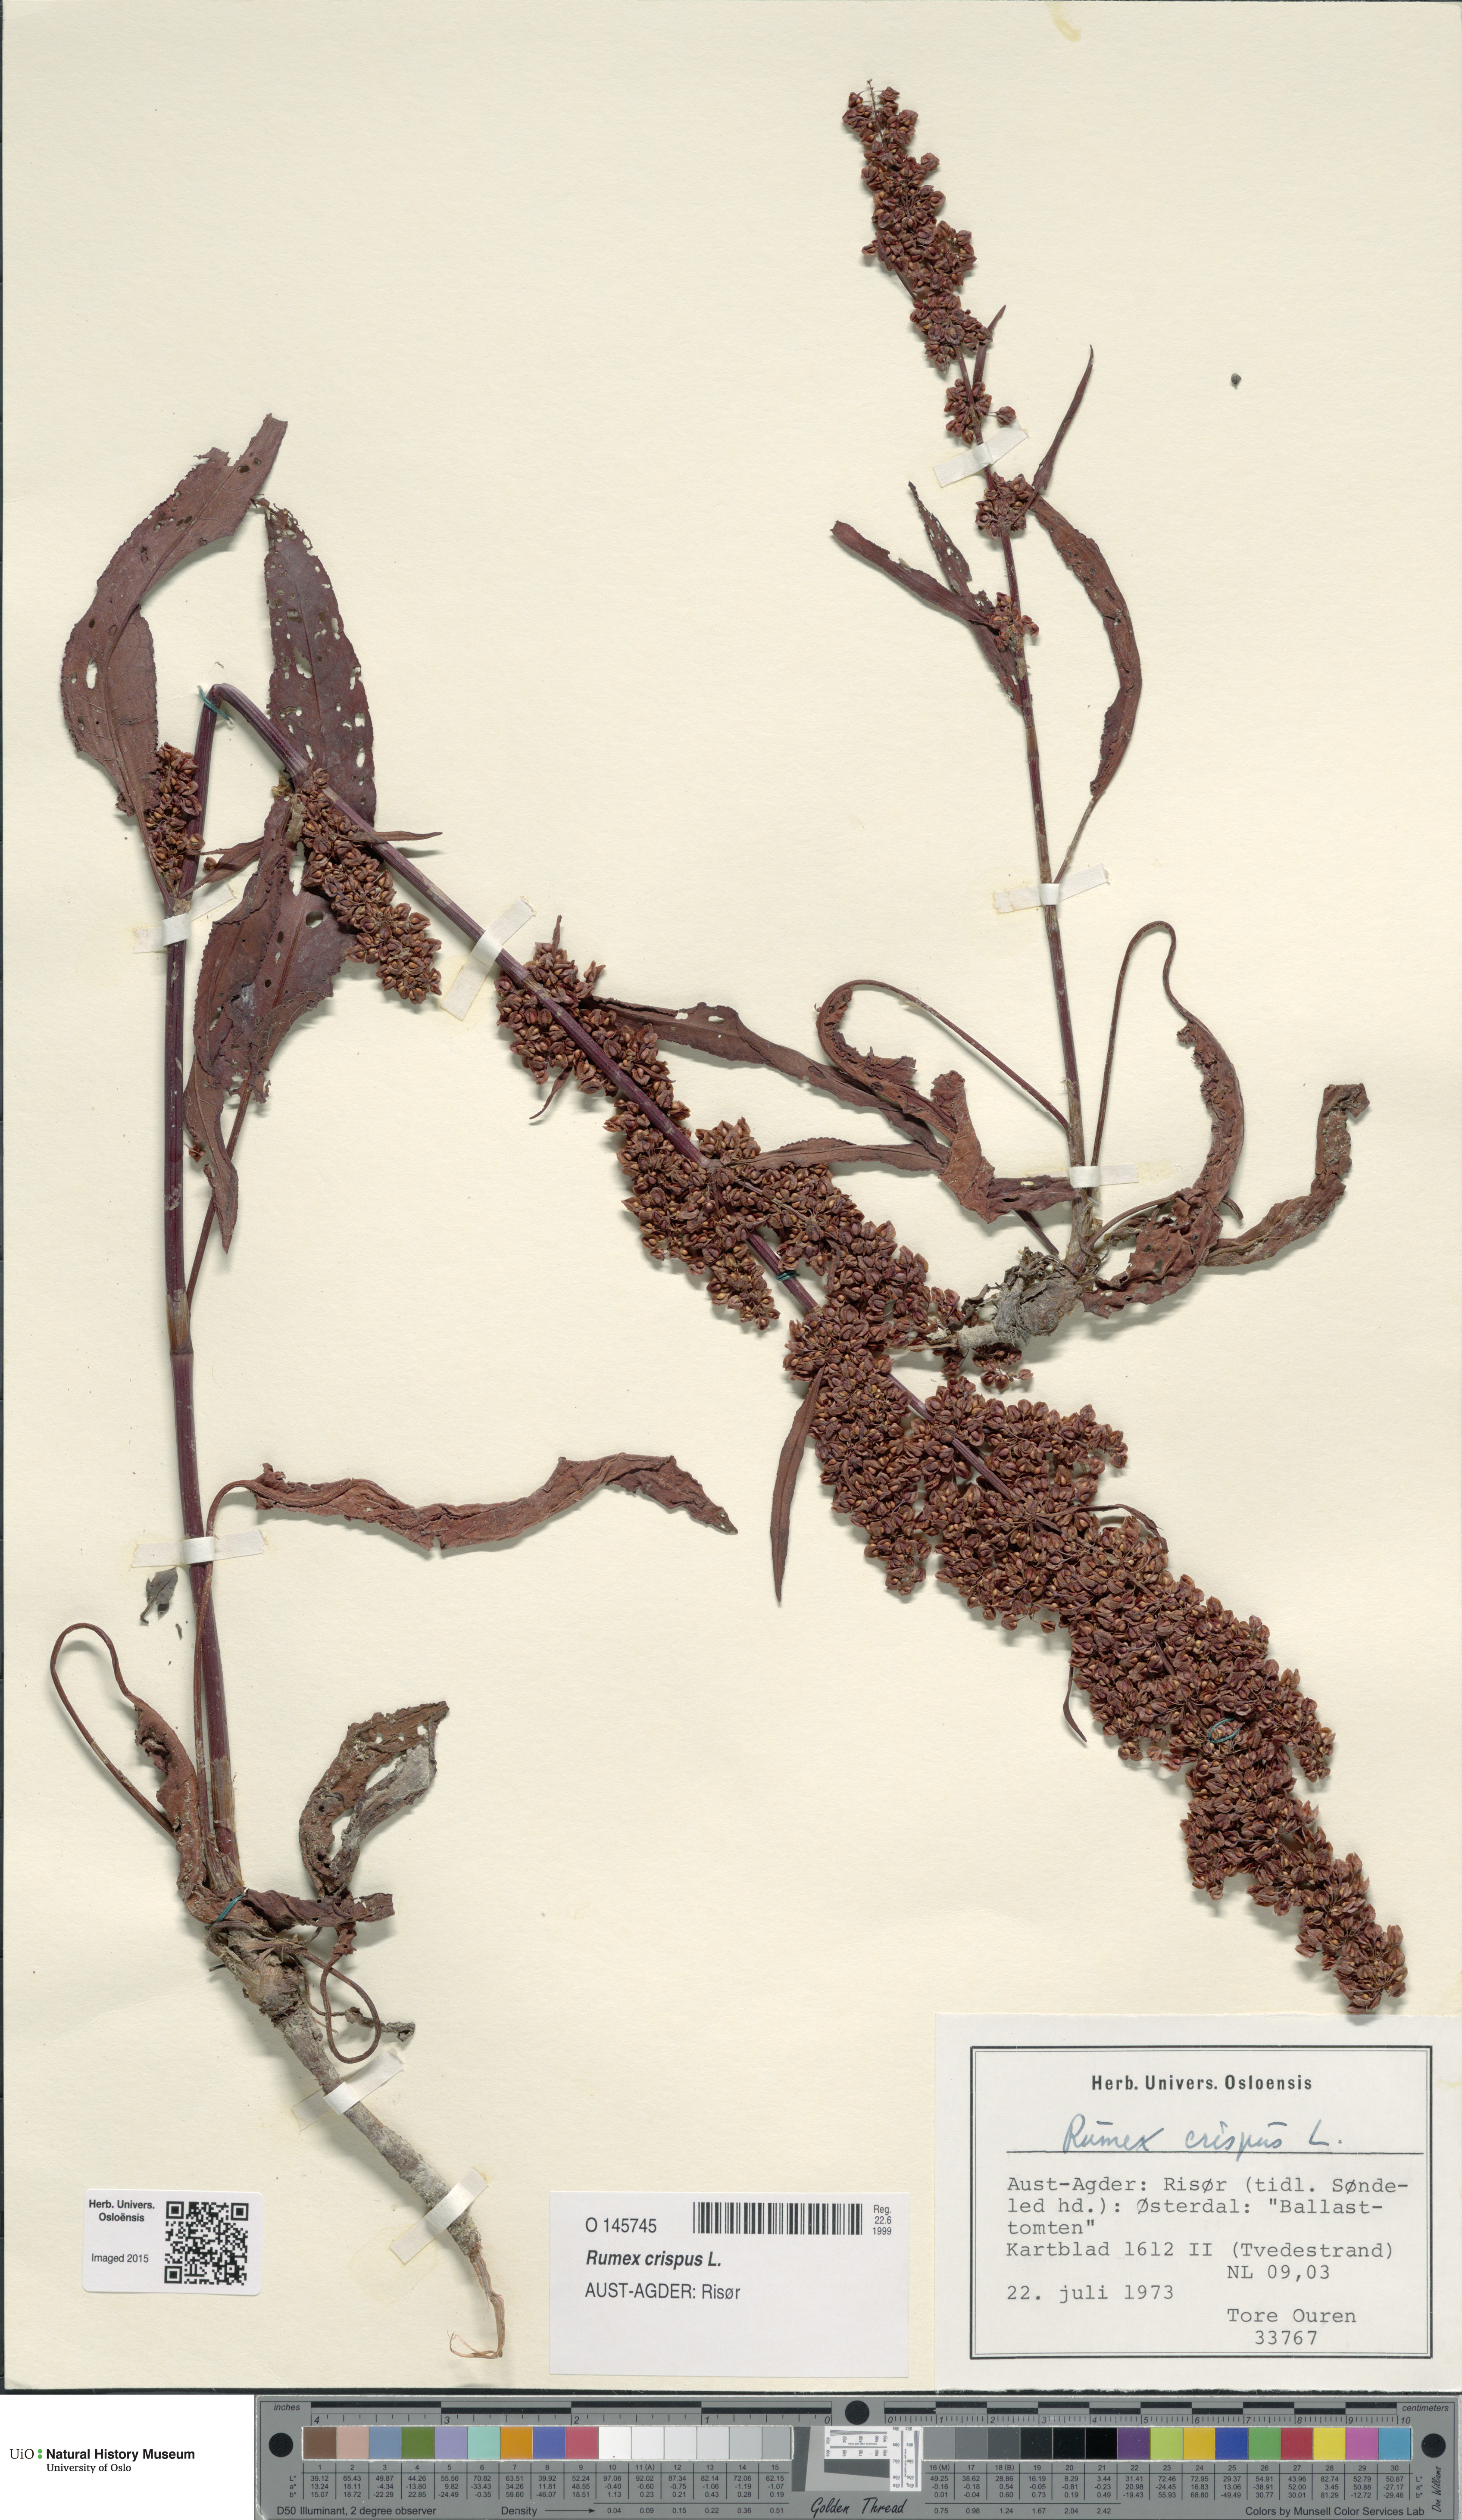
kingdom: Plantae
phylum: Tracheophyta
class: Magnoliopsida
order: Caryophyllales
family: Polygonaceae
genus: Rumex
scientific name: Rumex crispus
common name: Curled dock
